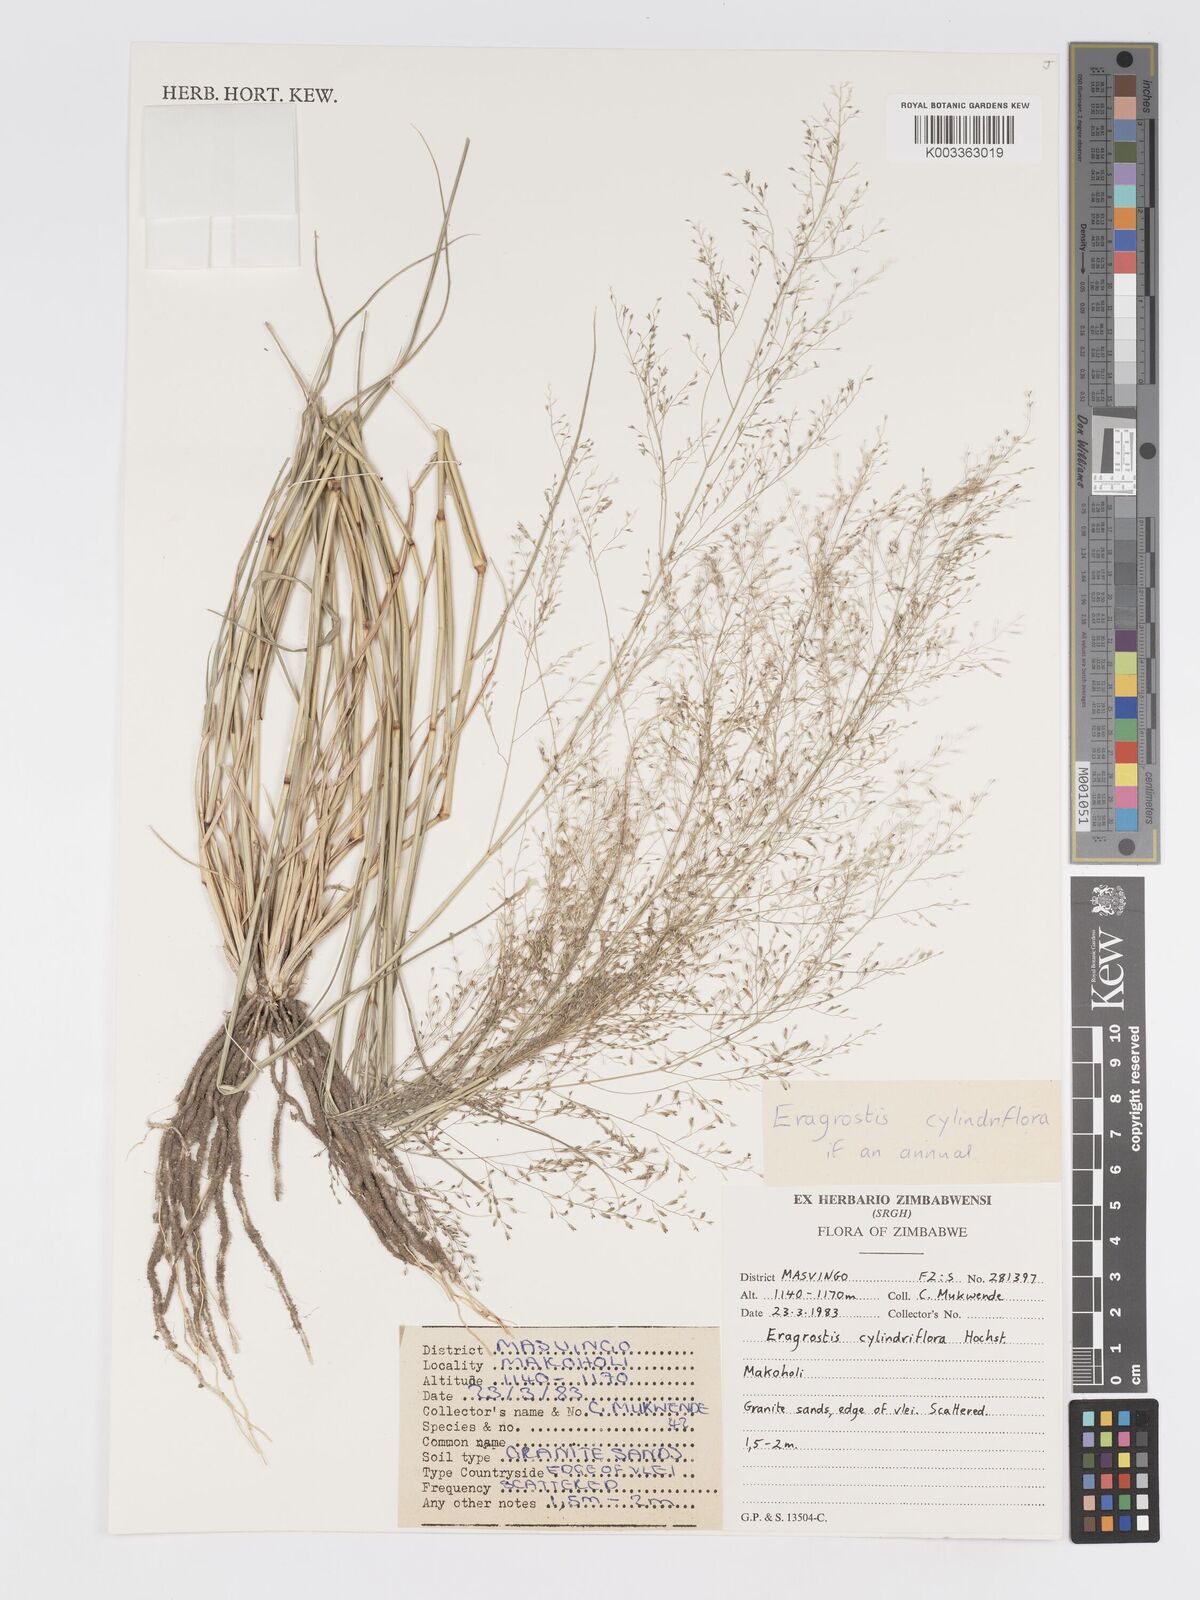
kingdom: Plantae
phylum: Tracheophyta
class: Liliopsida
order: Poales
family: Poaceae
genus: Eragrostis
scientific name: Eragrostis cylindriflora
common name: Cylinderflower lovegrass
